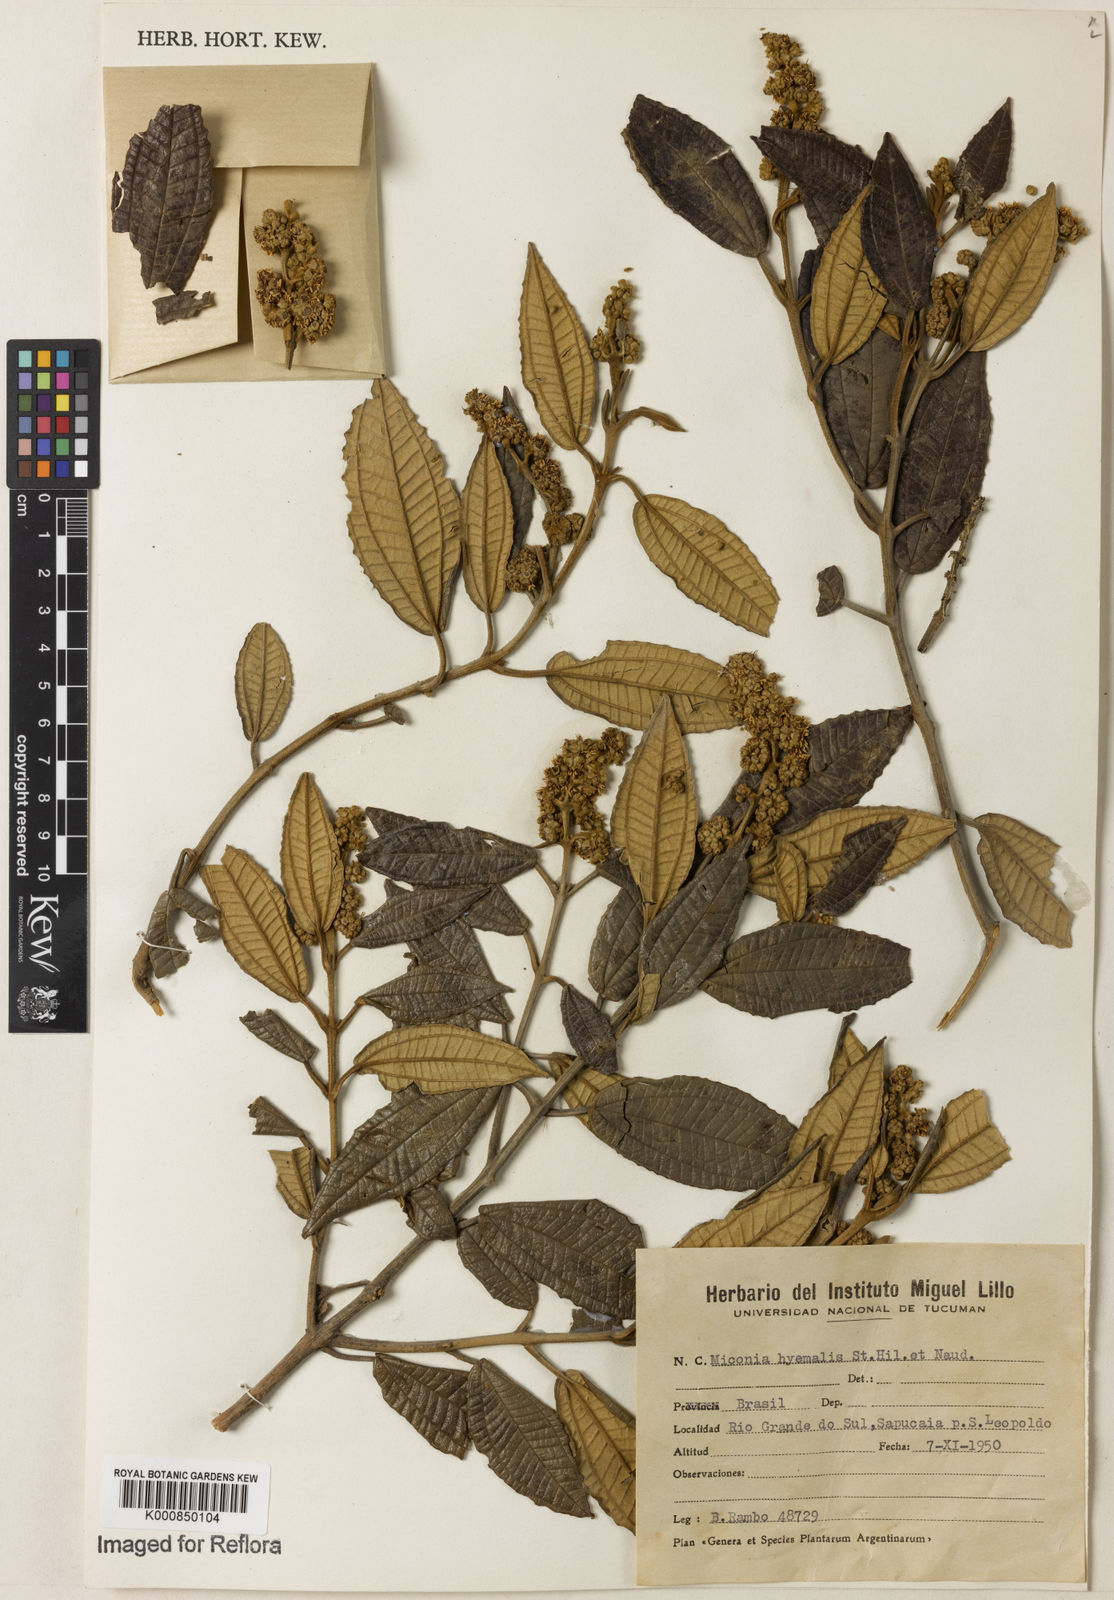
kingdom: Plantae
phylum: Tracheophyta
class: Magnoliopsida
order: Myrtales
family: Melastomataceae
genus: Miconia
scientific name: Miconia hyemalis
